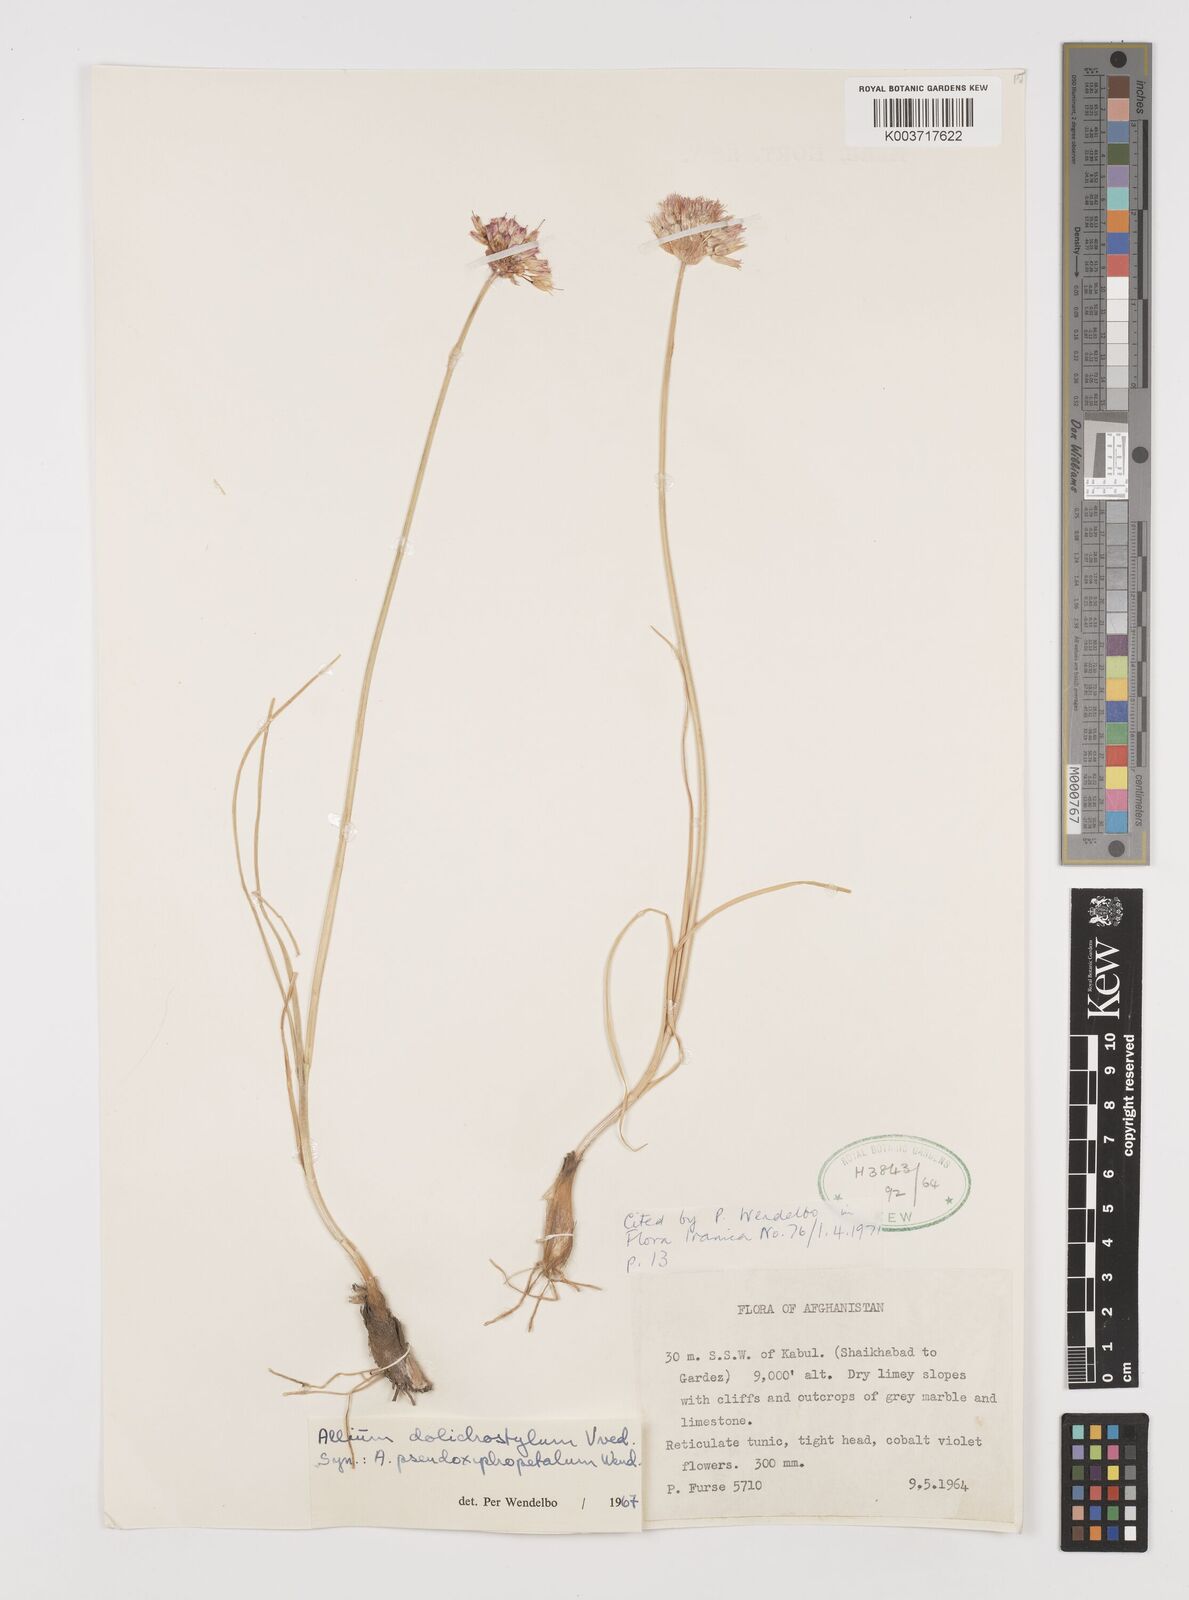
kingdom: Plantae
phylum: Tracheophyta
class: Liliopsida
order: Asparagales
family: Amaryllidaceae
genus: Allium
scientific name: Allium dolichomischum
